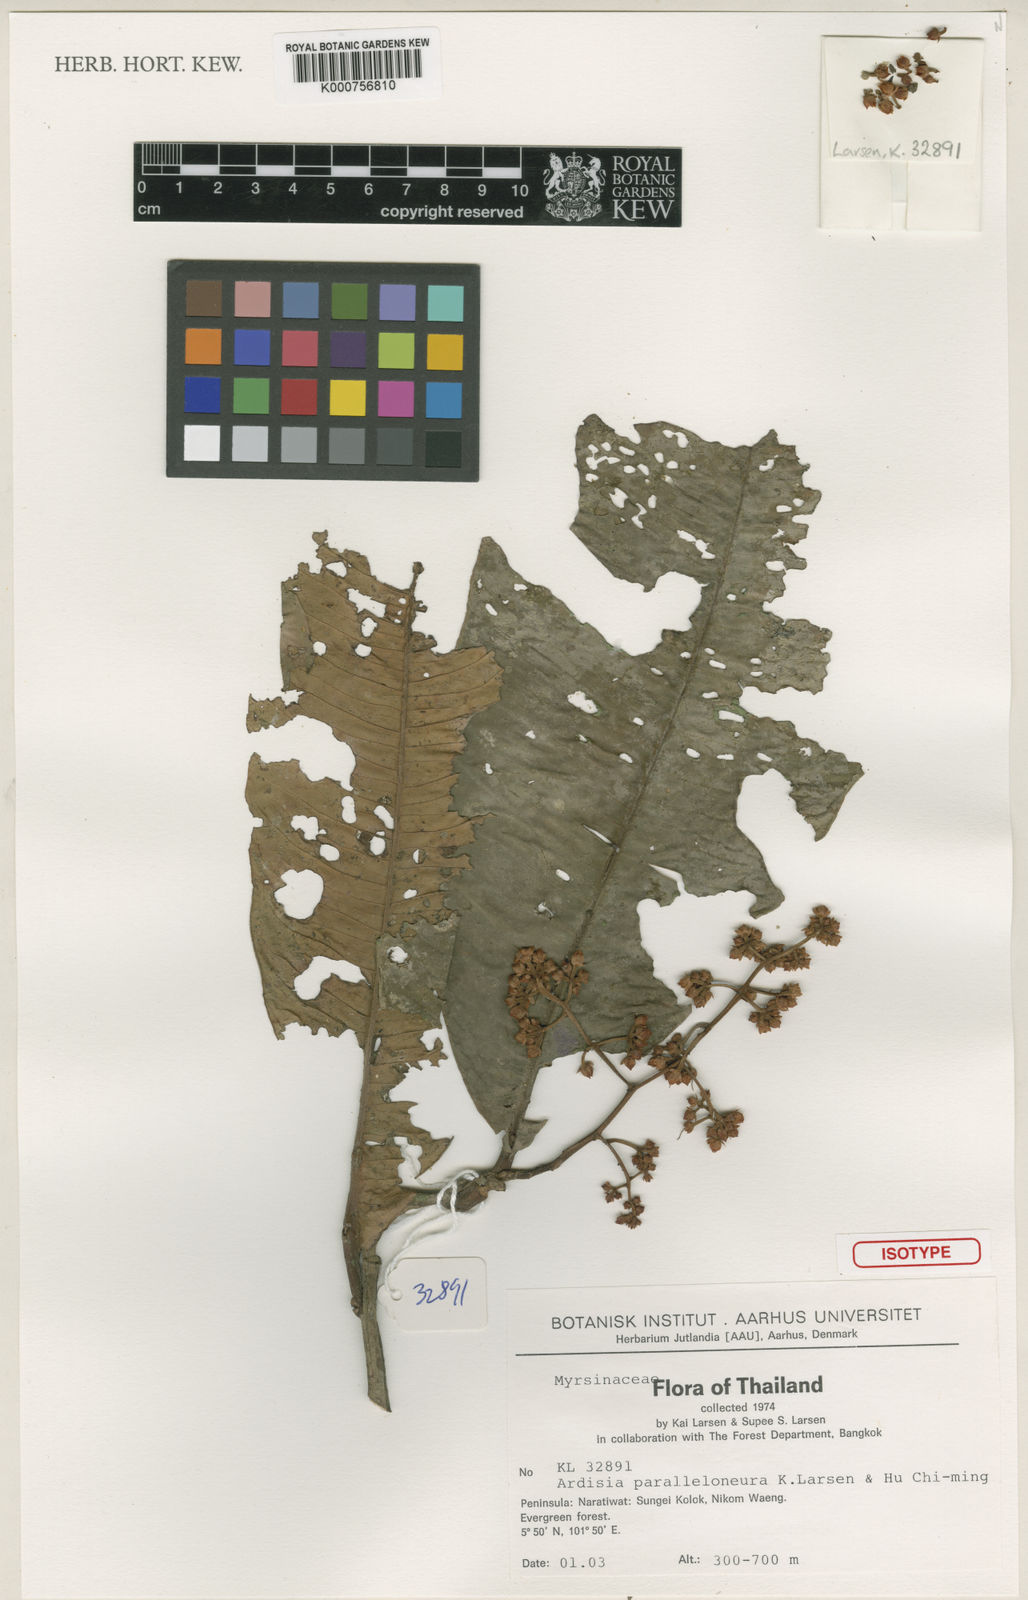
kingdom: Plantae
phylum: Tracheophyta
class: Magnoliopsida
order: Ericales
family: Primulaceae
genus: Ardisia
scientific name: Ardisia paralleloneura
